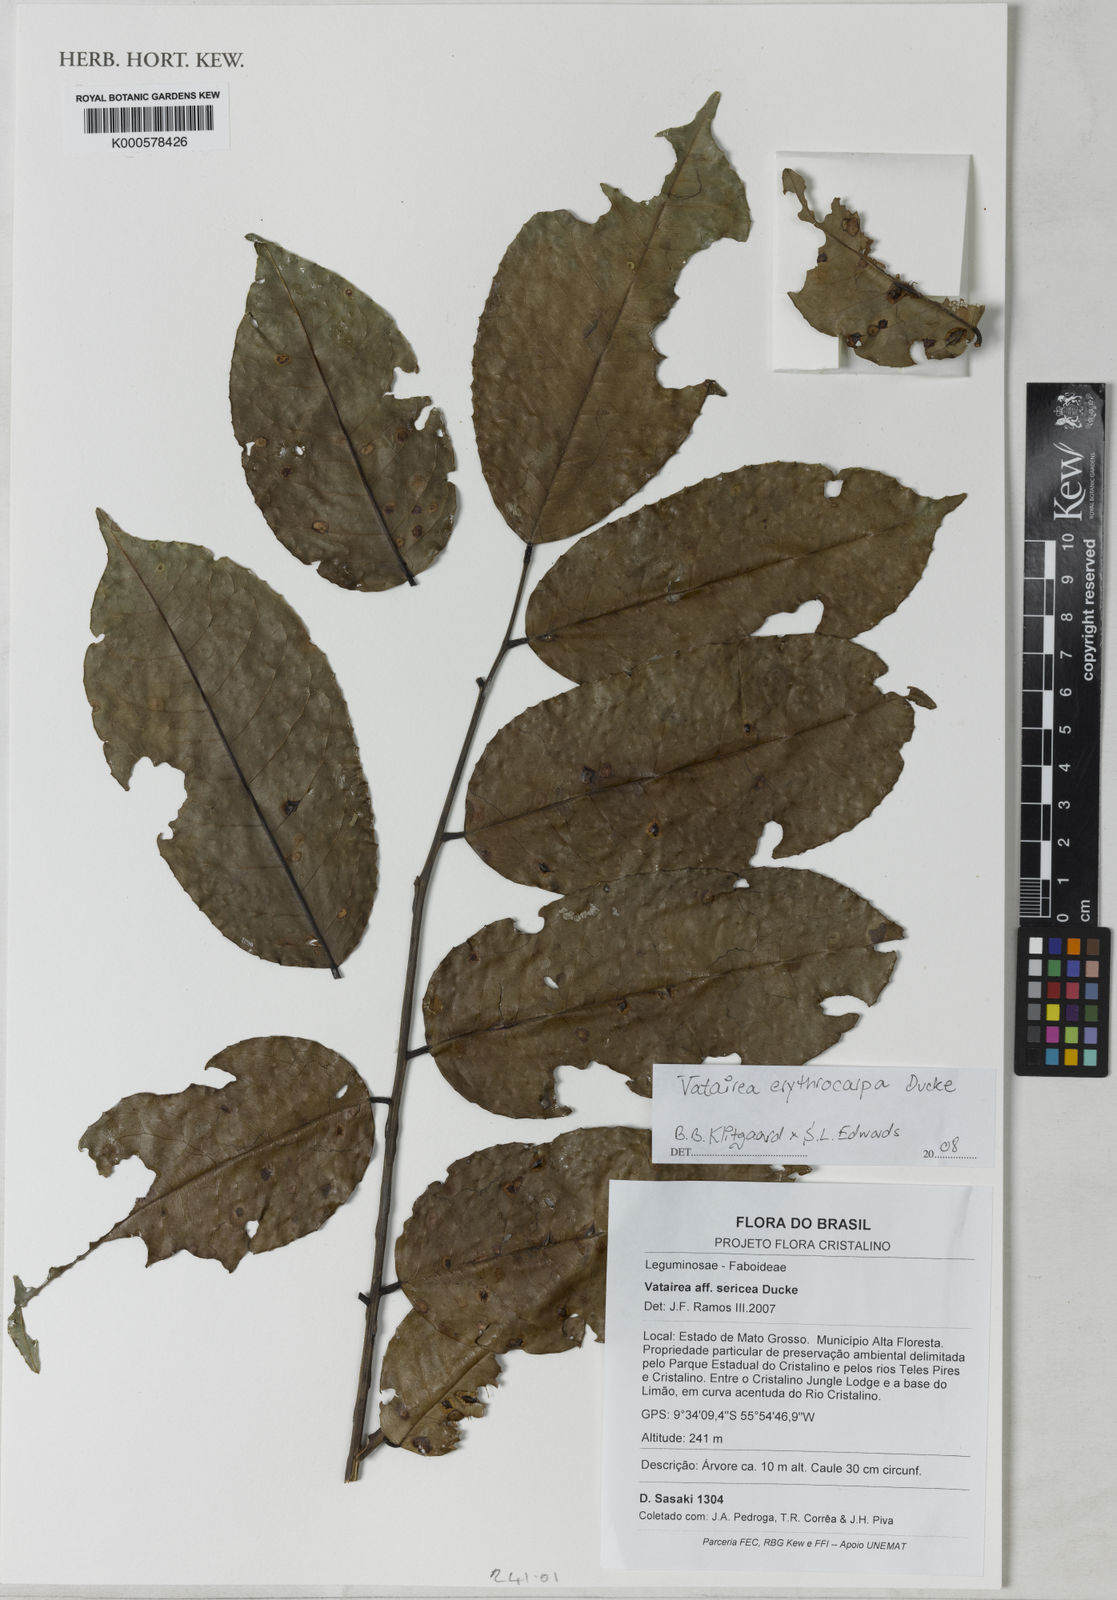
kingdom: Plantae
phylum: Tracheophyta
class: Magnoliopsida
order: Fabales
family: Fabaceae
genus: Vatairea
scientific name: Vatairea erythrocarpa
